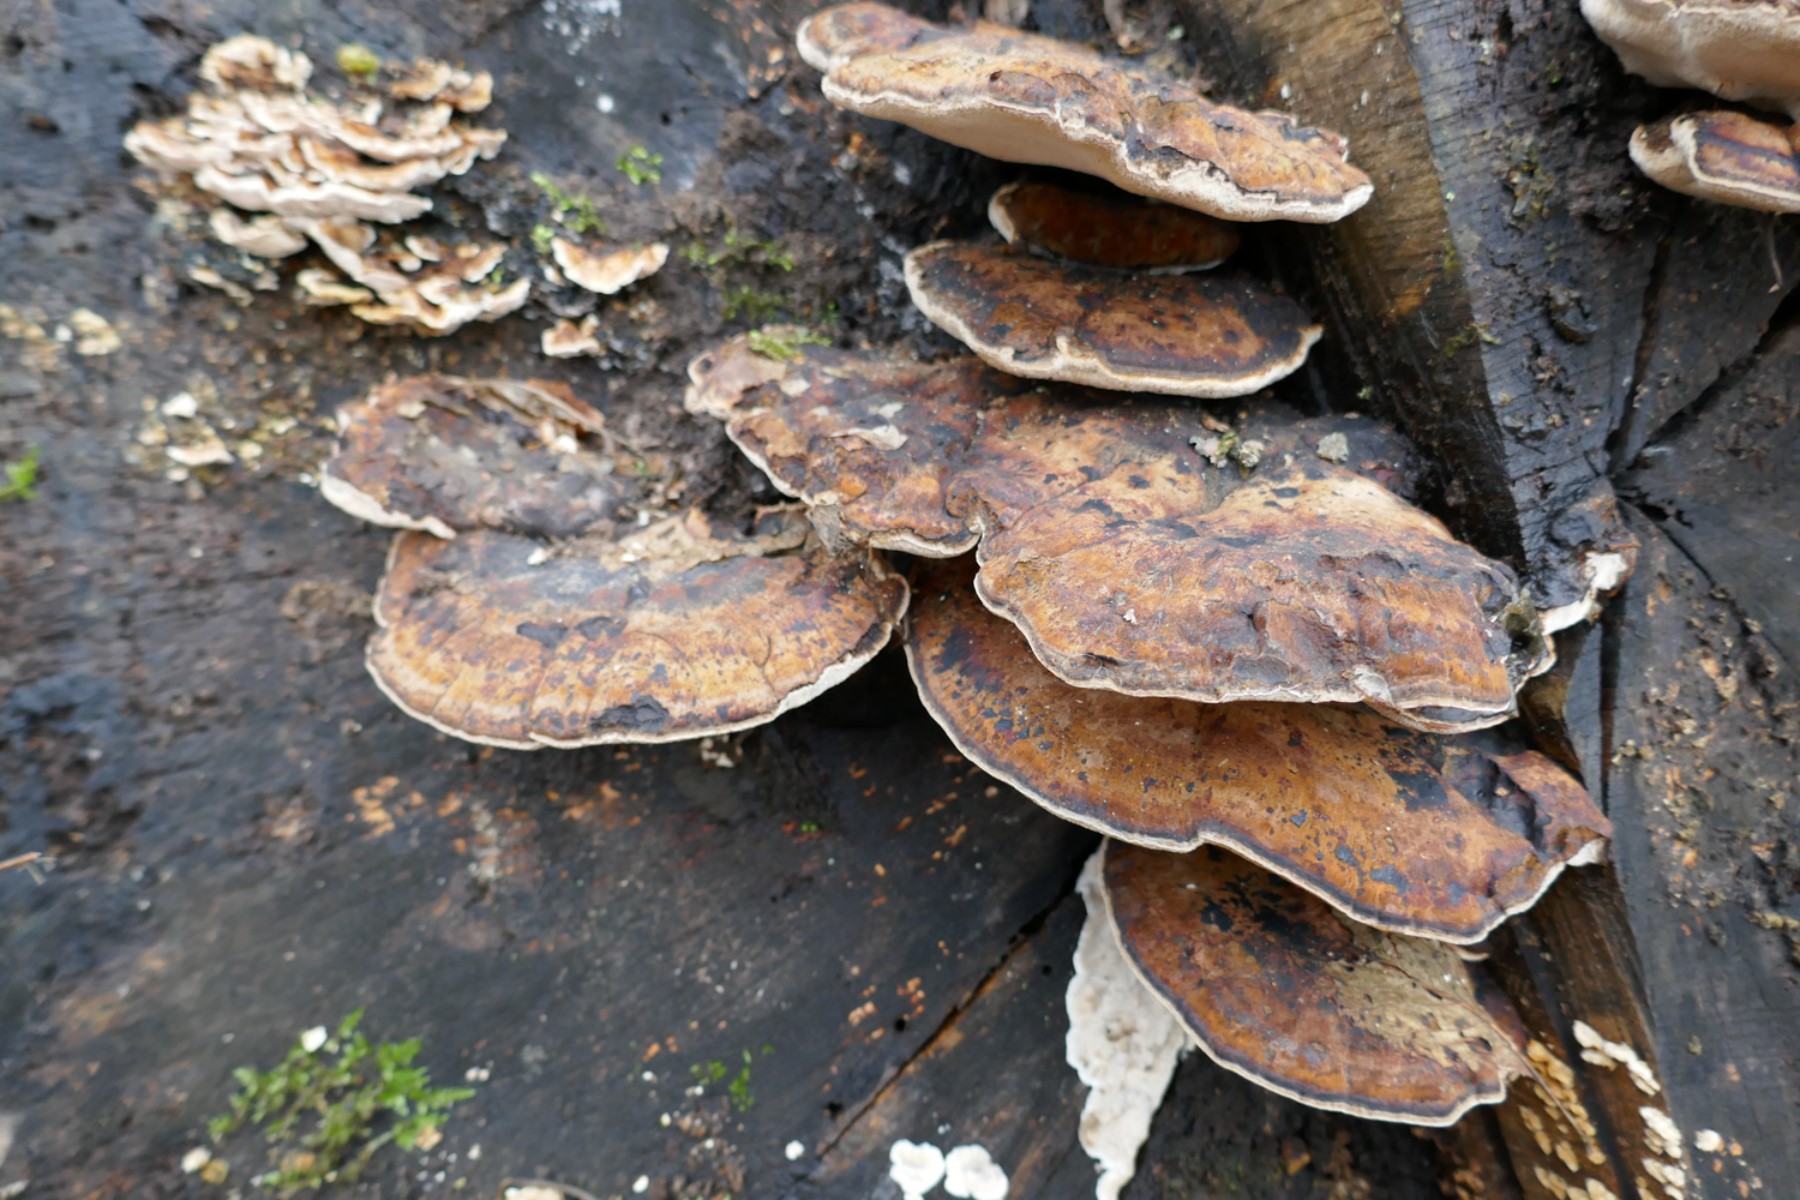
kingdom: Fungi
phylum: Basidiomycota
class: Agaricomycetes
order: Polyporales
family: Ischnodermataceae
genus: Ischnoderma
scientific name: Ischnoderma resinosum
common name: løv-tjæreporesvamp
